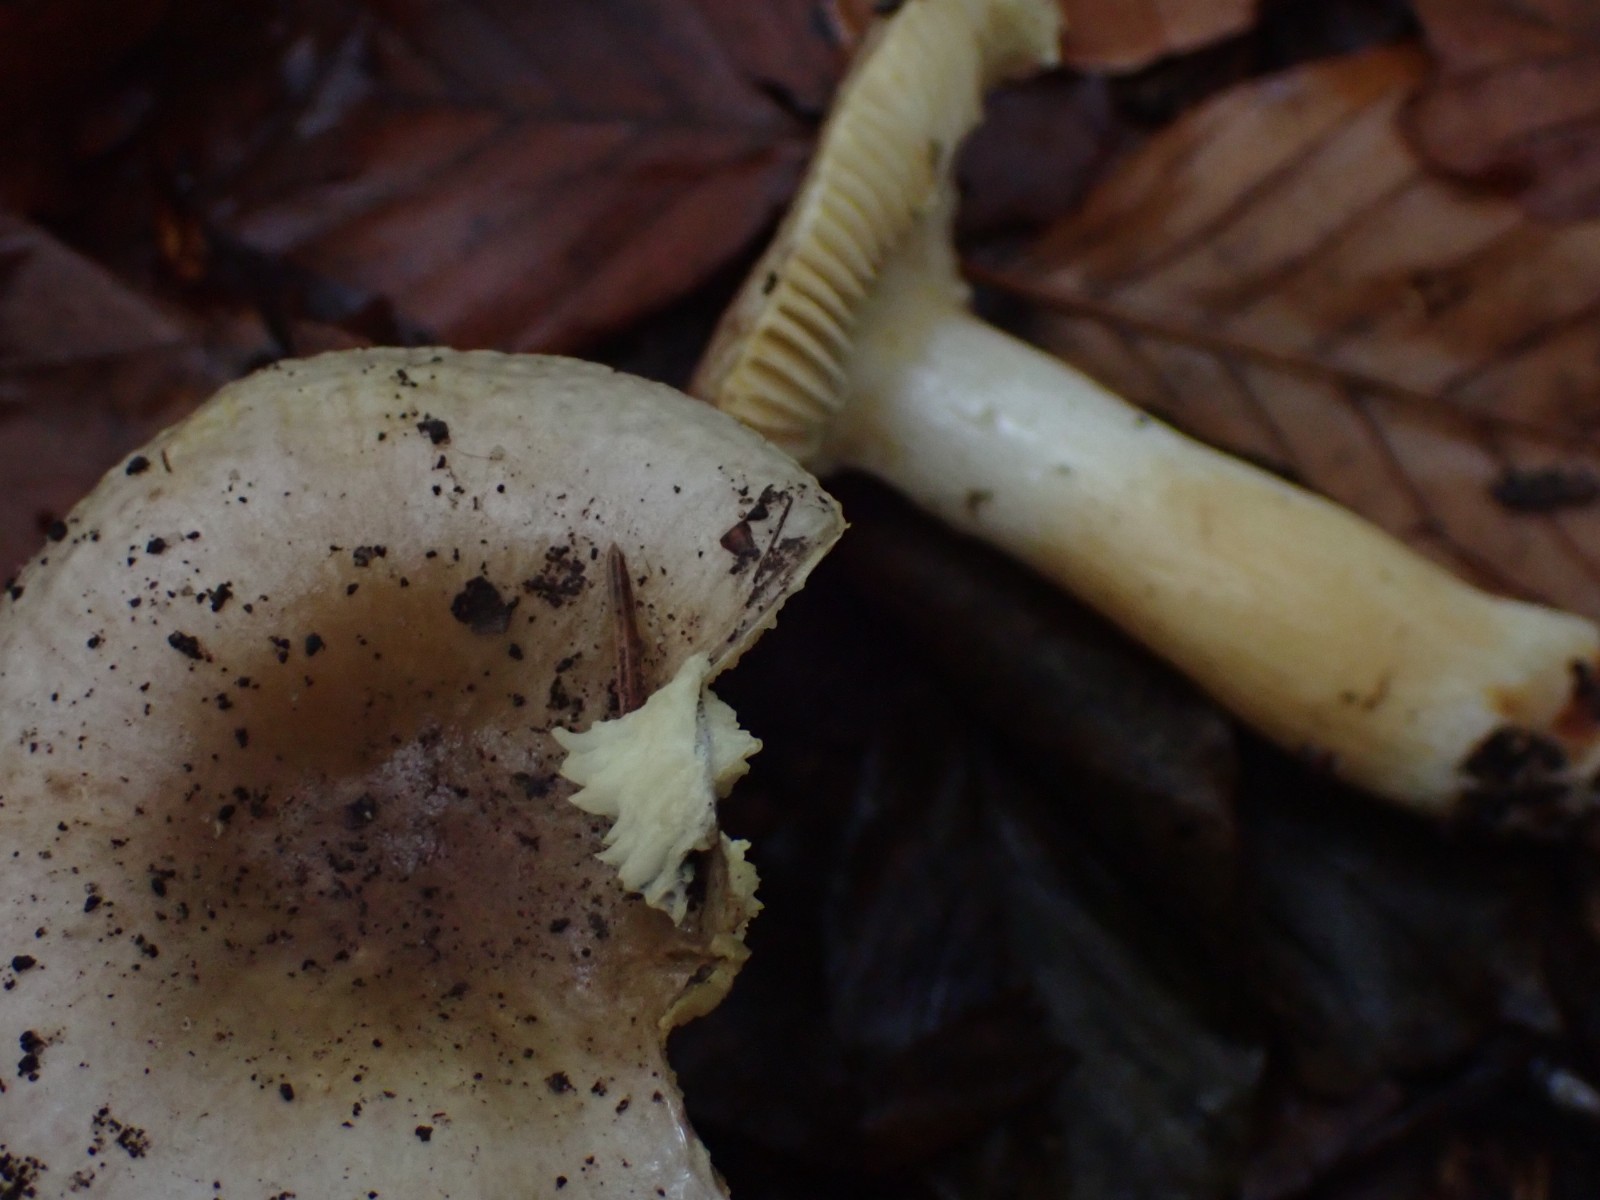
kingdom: Fungi
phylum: Basidiomycota
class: Agaricomycetes
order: Russulales
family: Russulaceae
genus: Russula
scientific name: Russula puellaris
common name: gulstokket skørhat
